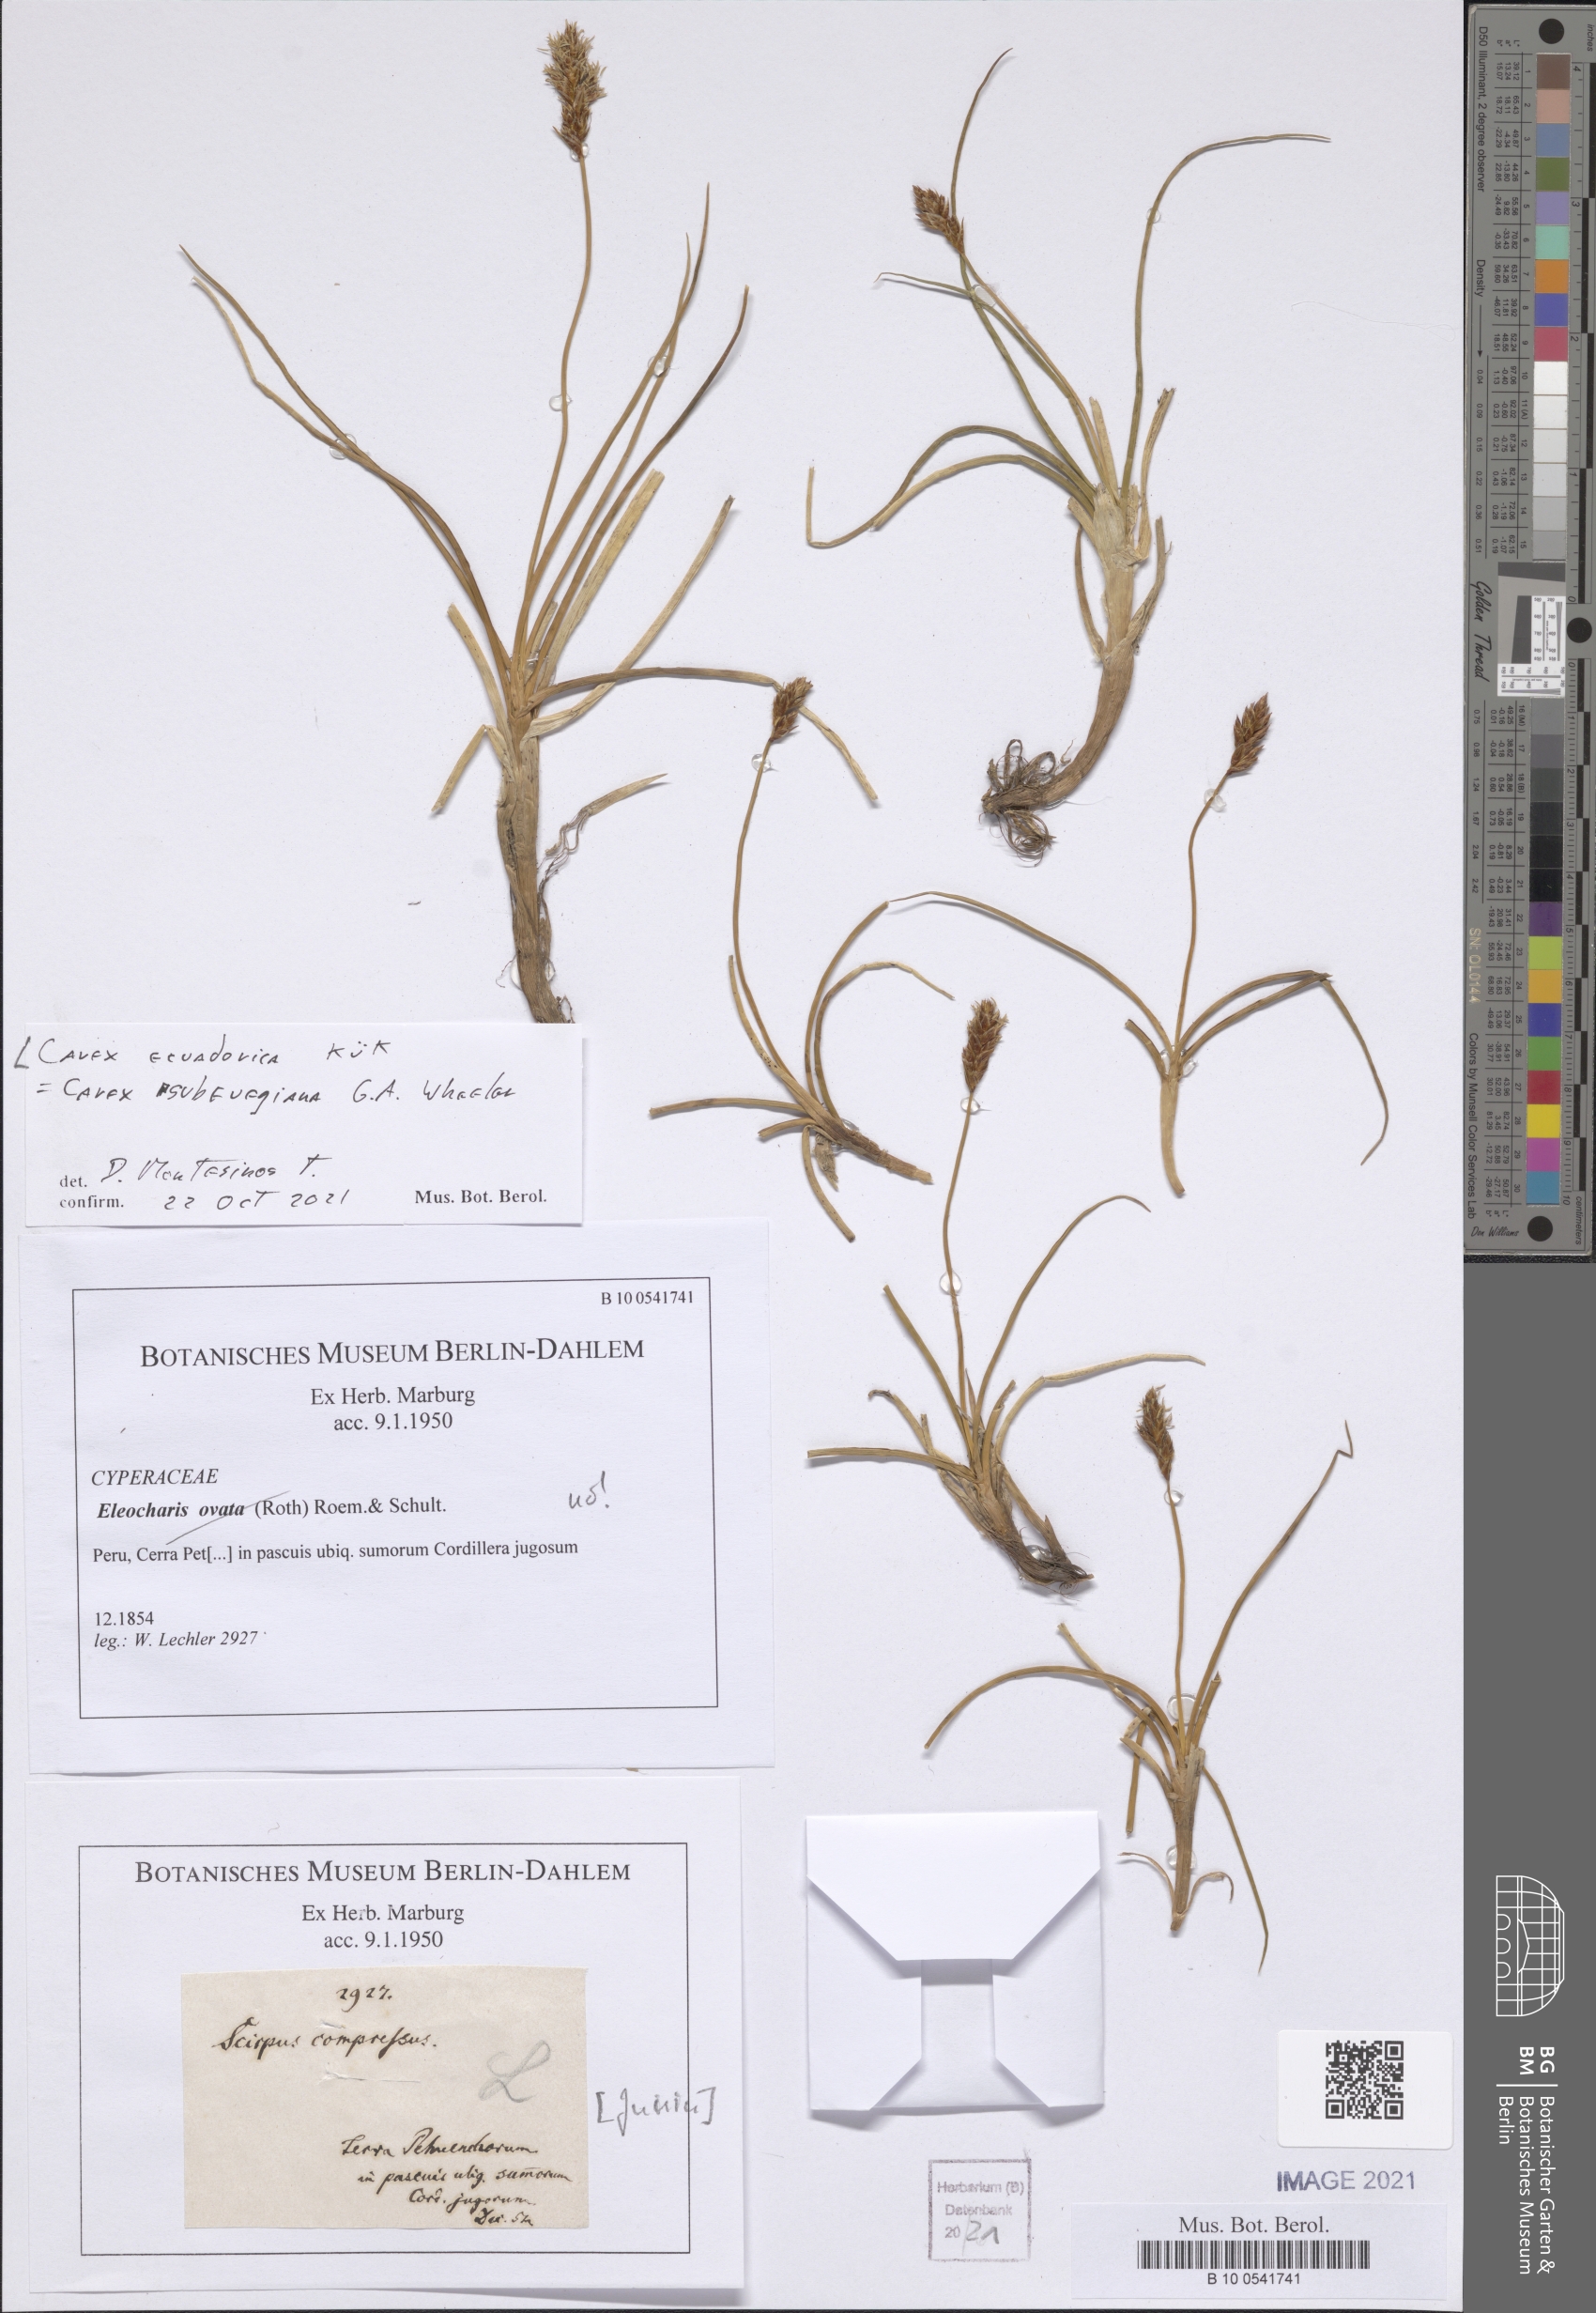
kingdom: Plantae
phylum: Tracheophyta
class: Liliopsida
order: Poales
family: Cyperaceae
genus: Carex
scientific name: Carex ecuadorica
